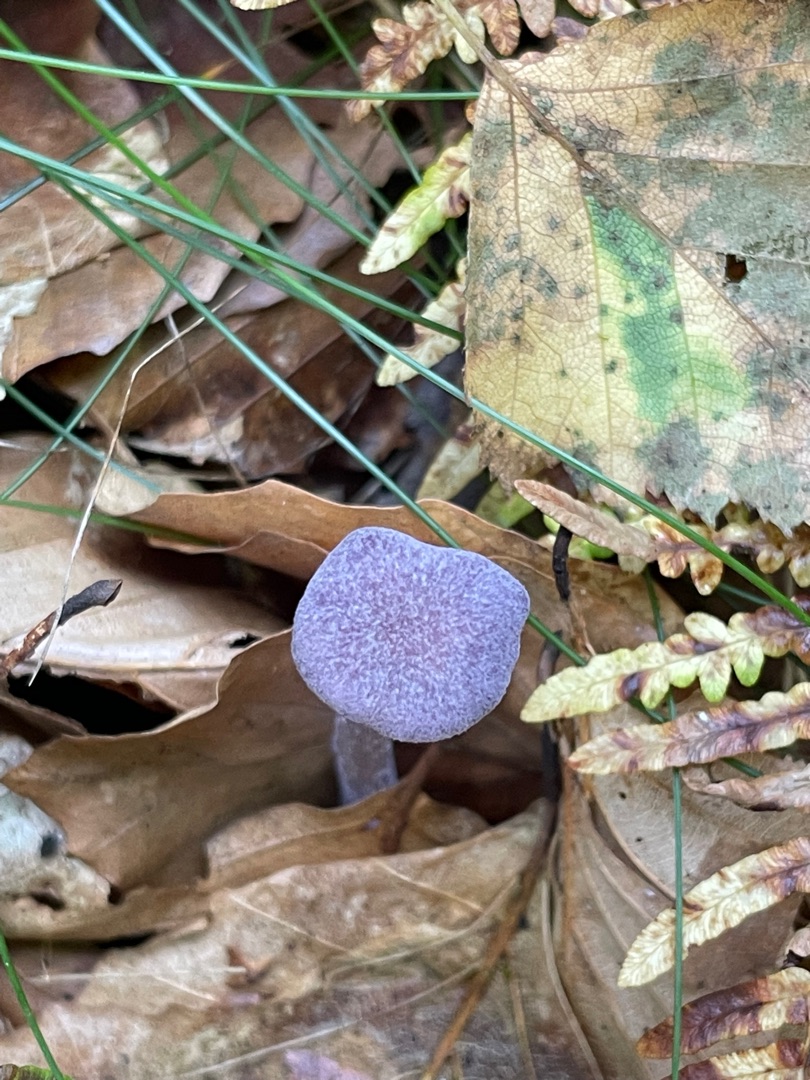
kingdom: Fungi
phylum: Basidiomycota
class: Agaricomycetes
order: Agaricales
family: Hydnangiaceae
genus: Laccaria
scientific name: Laccaria amethystina
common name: Violet ametysthat
